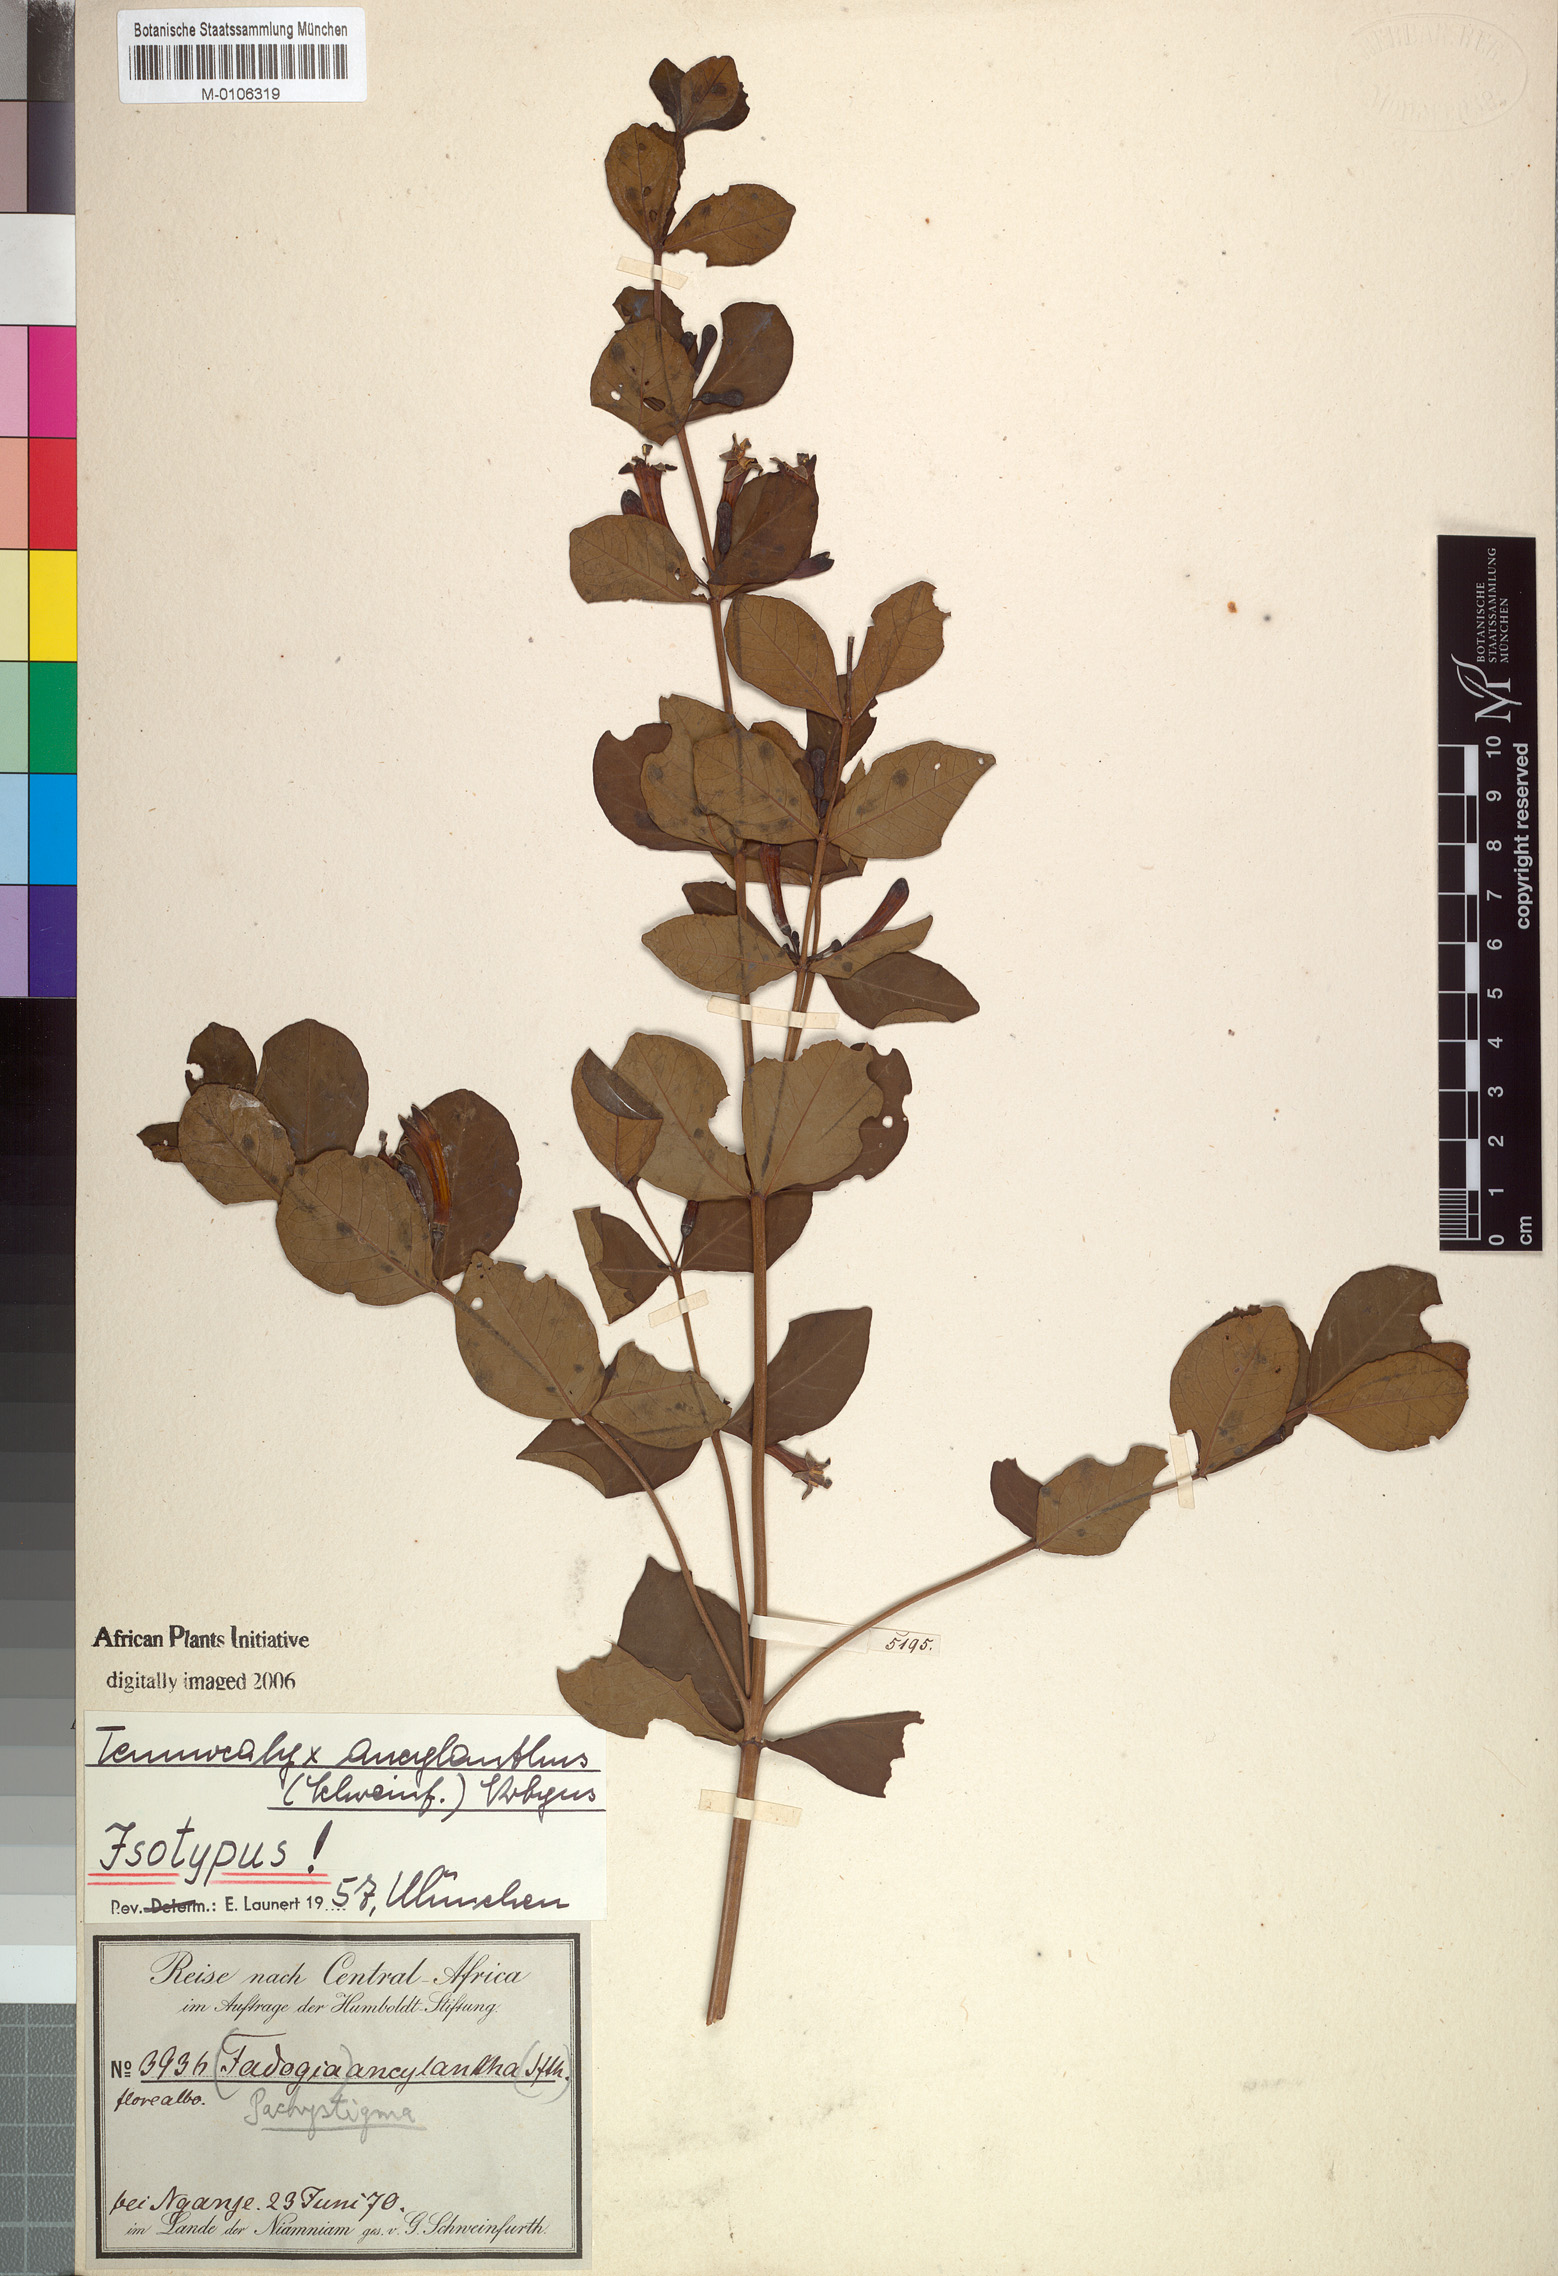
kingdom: Plantae
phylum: Tracheophyta
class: Magnoliopsida
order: Gentianales
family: Rubiaceae
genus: Fadogia
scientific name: Fadogia ancylantha
